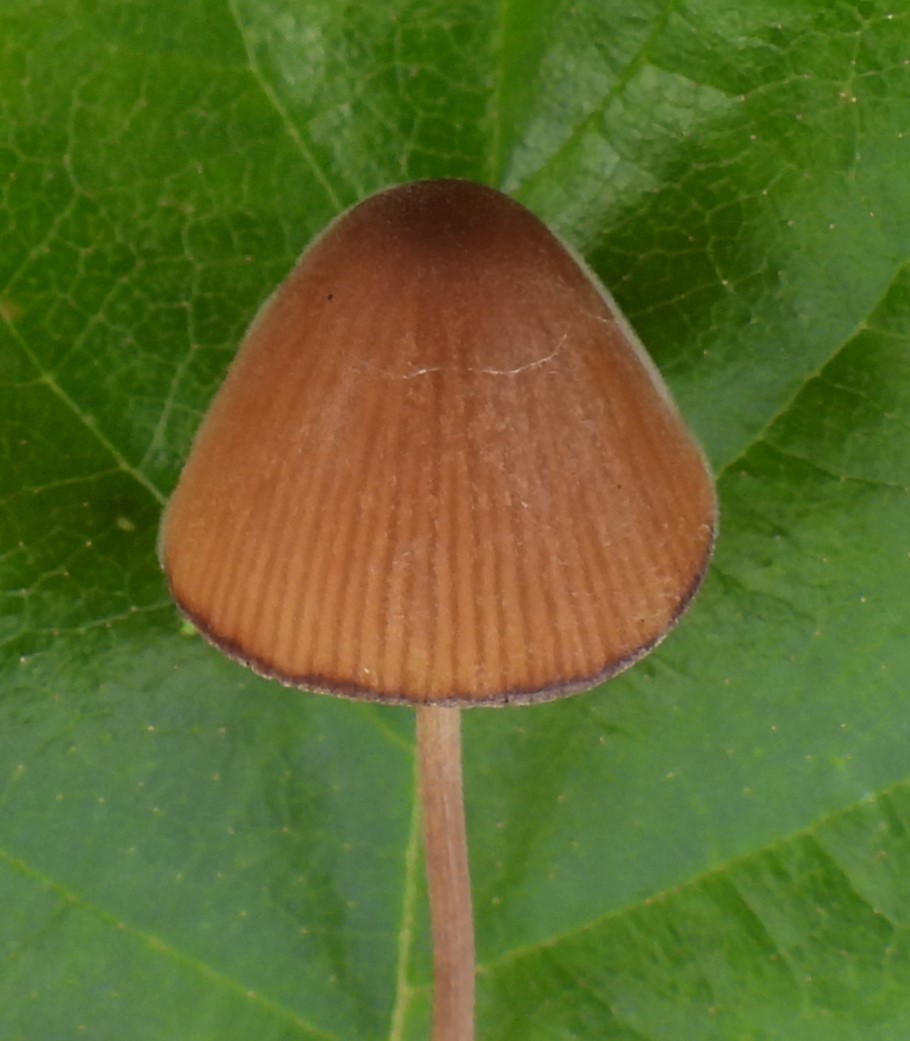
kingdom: Fungi
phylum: Basidiomycota
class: Agaricomycetes
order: Agaricales
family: Bolbitiaceae
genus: Conocybe
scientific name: Conocybe subpubescens
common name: krat-keglehat
